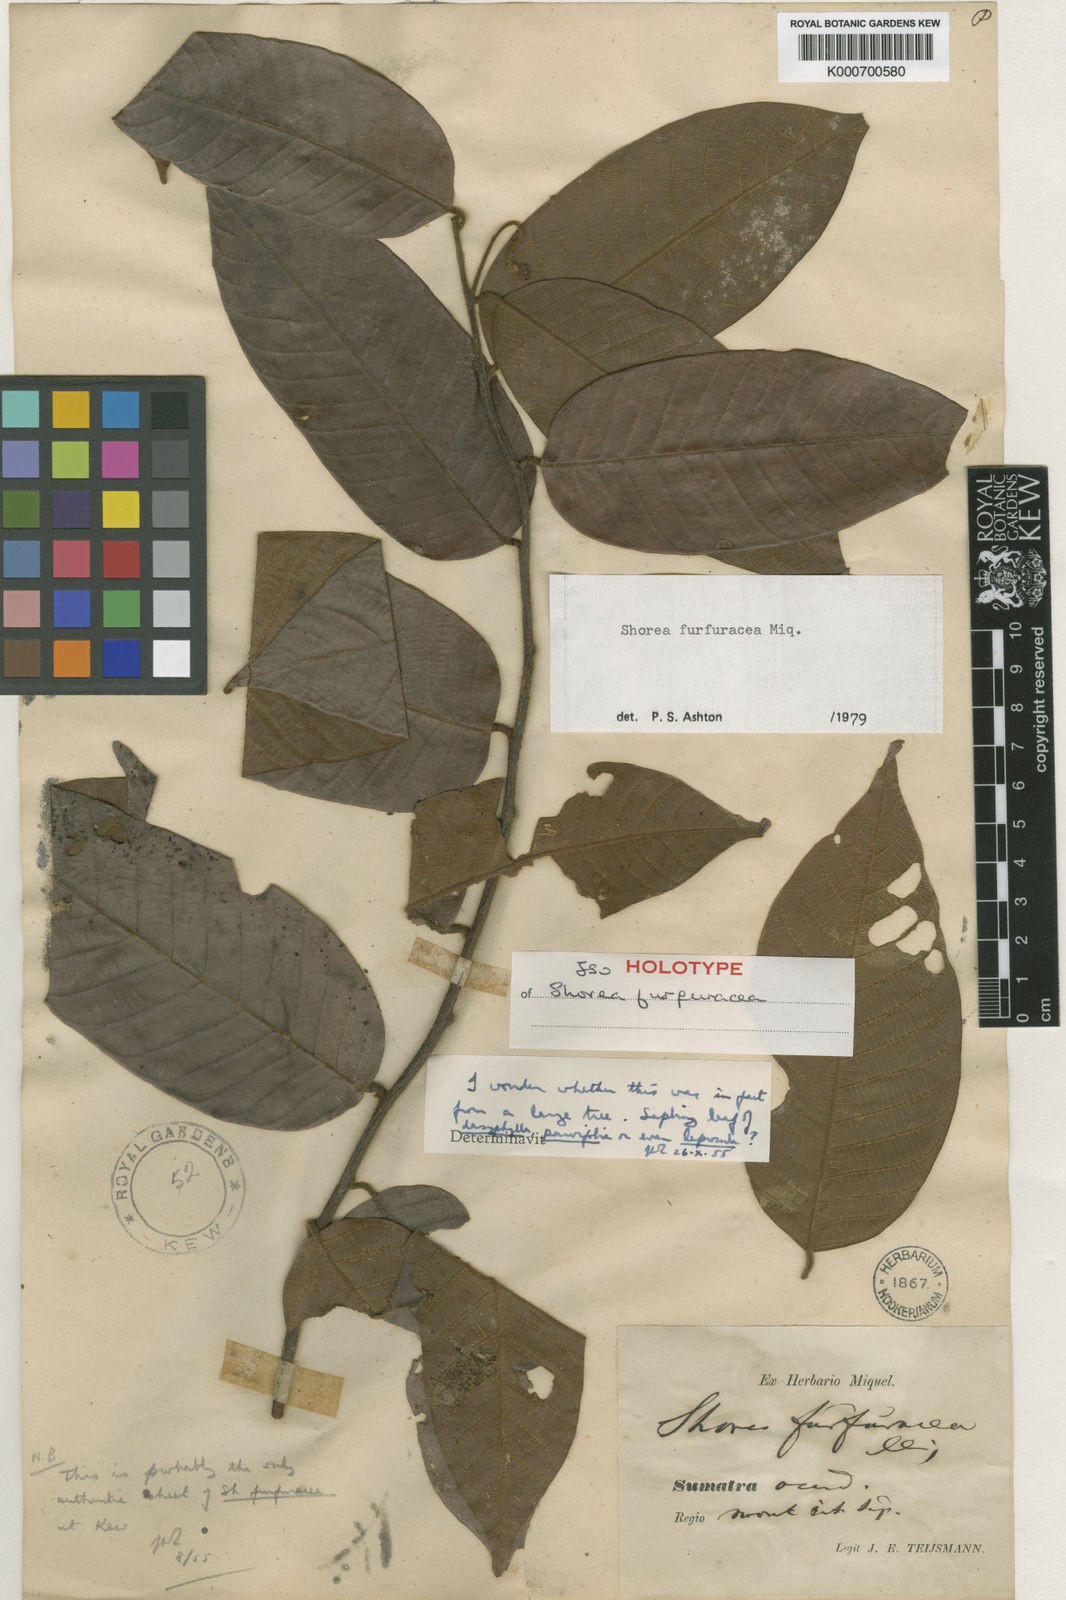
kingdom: Plantae
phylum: Tracheophyta
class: Magnoliopsida
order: Malvales
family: Dipterocarpaceae
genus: Shorea
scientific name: Shorea furfuracea
